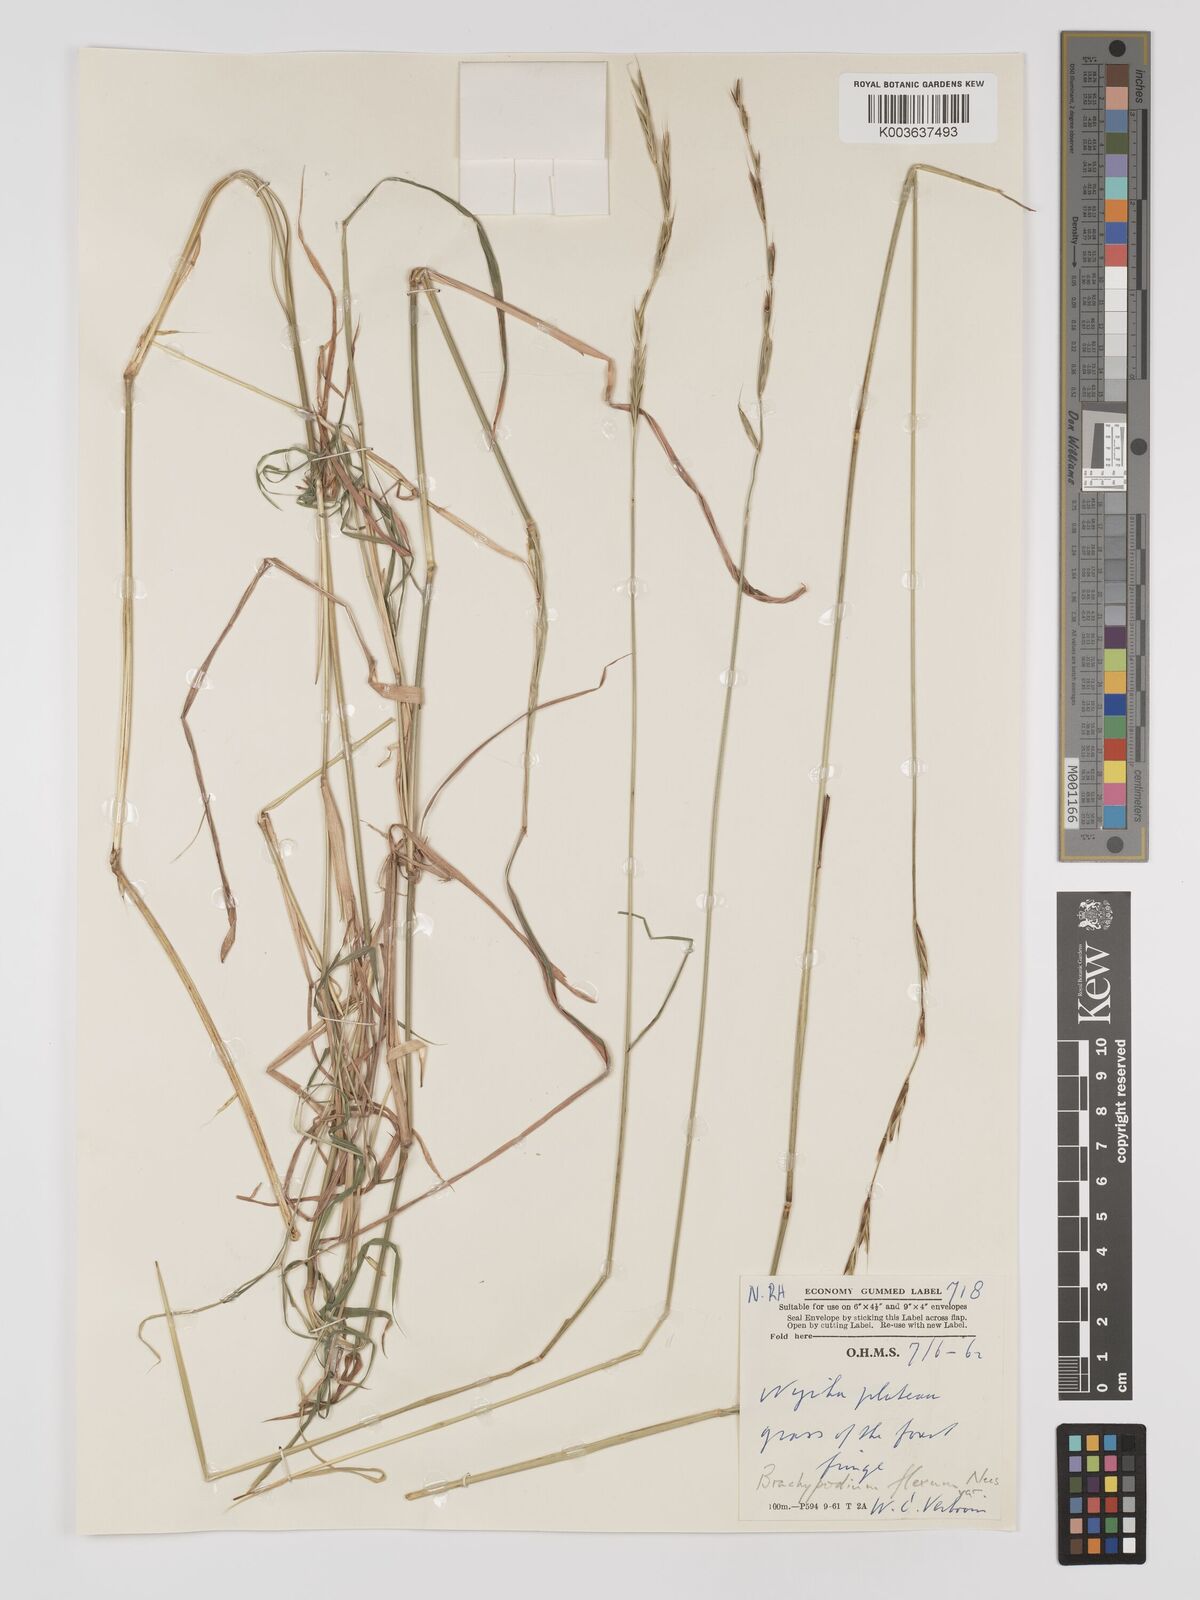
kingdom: Plantae
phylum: Tracheophyta
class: Liliopsida
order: Poales
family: Poaceae
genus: Brachypodium
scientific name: Brachypodium flexum
